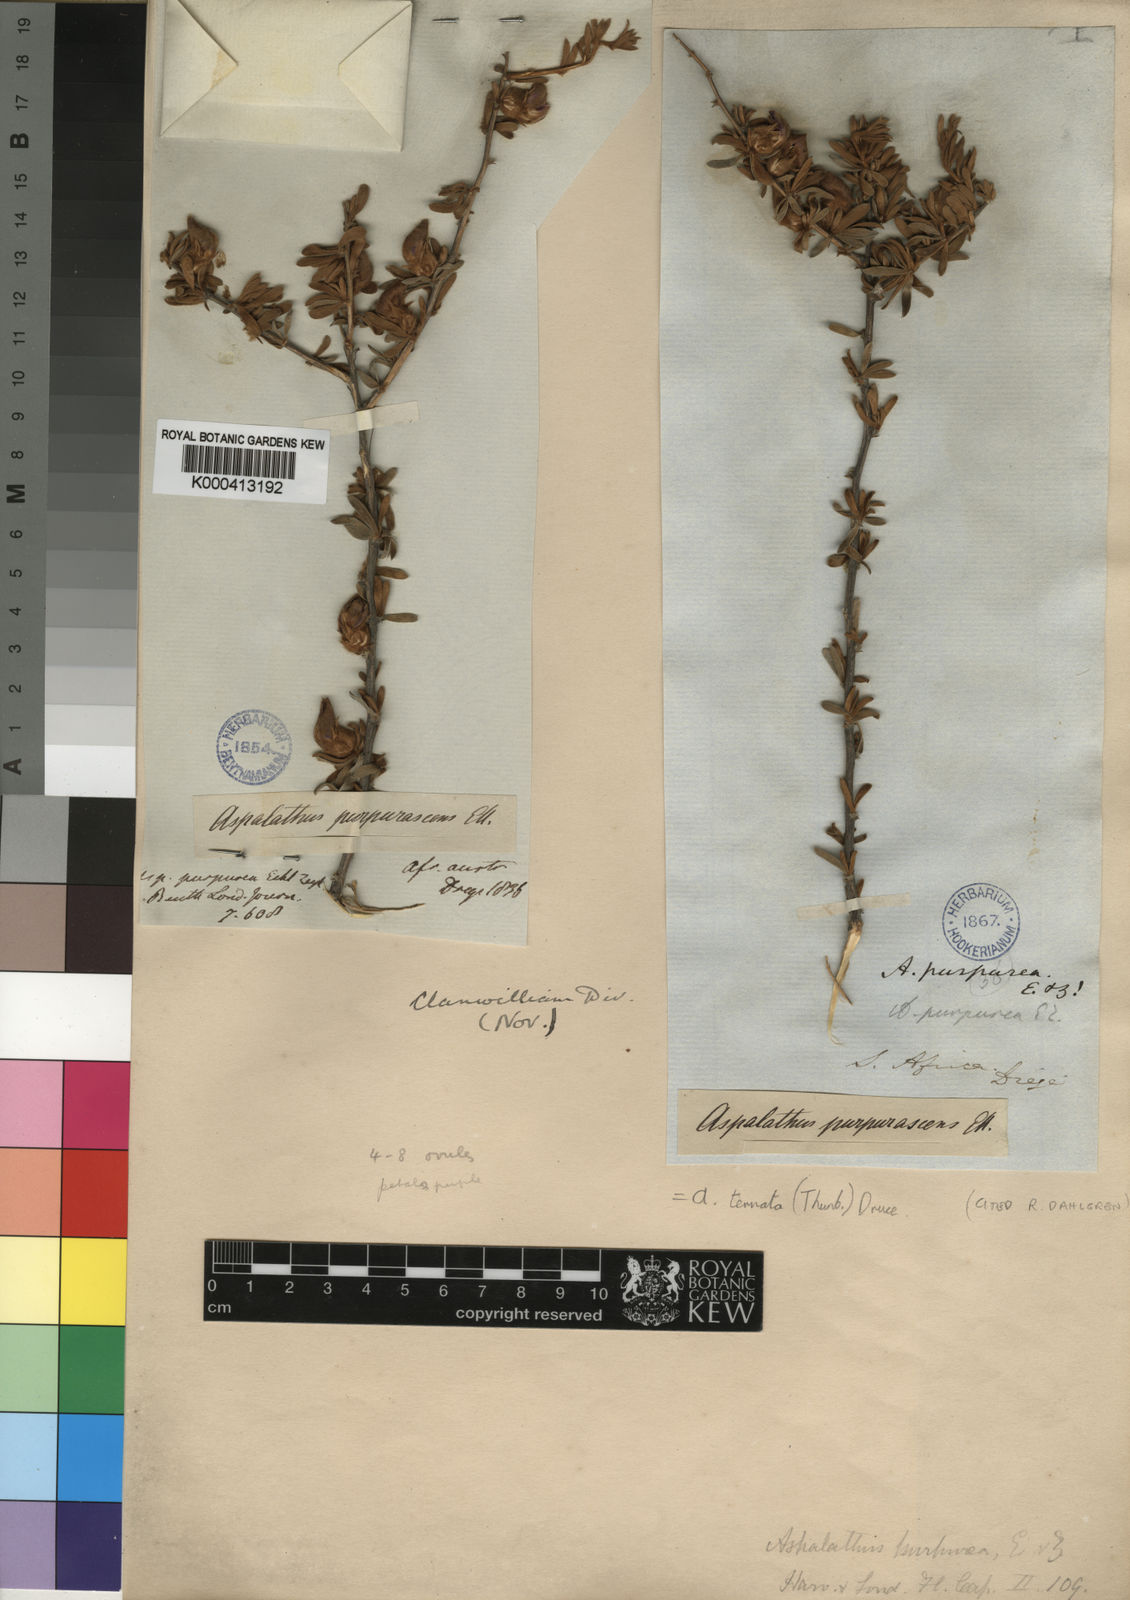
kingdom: Plantae
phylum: Tracheophyta
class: Magnoliopsida
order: Fabales
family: Fabaceae
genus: Aspalathus
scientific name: Aspalathus ternata
